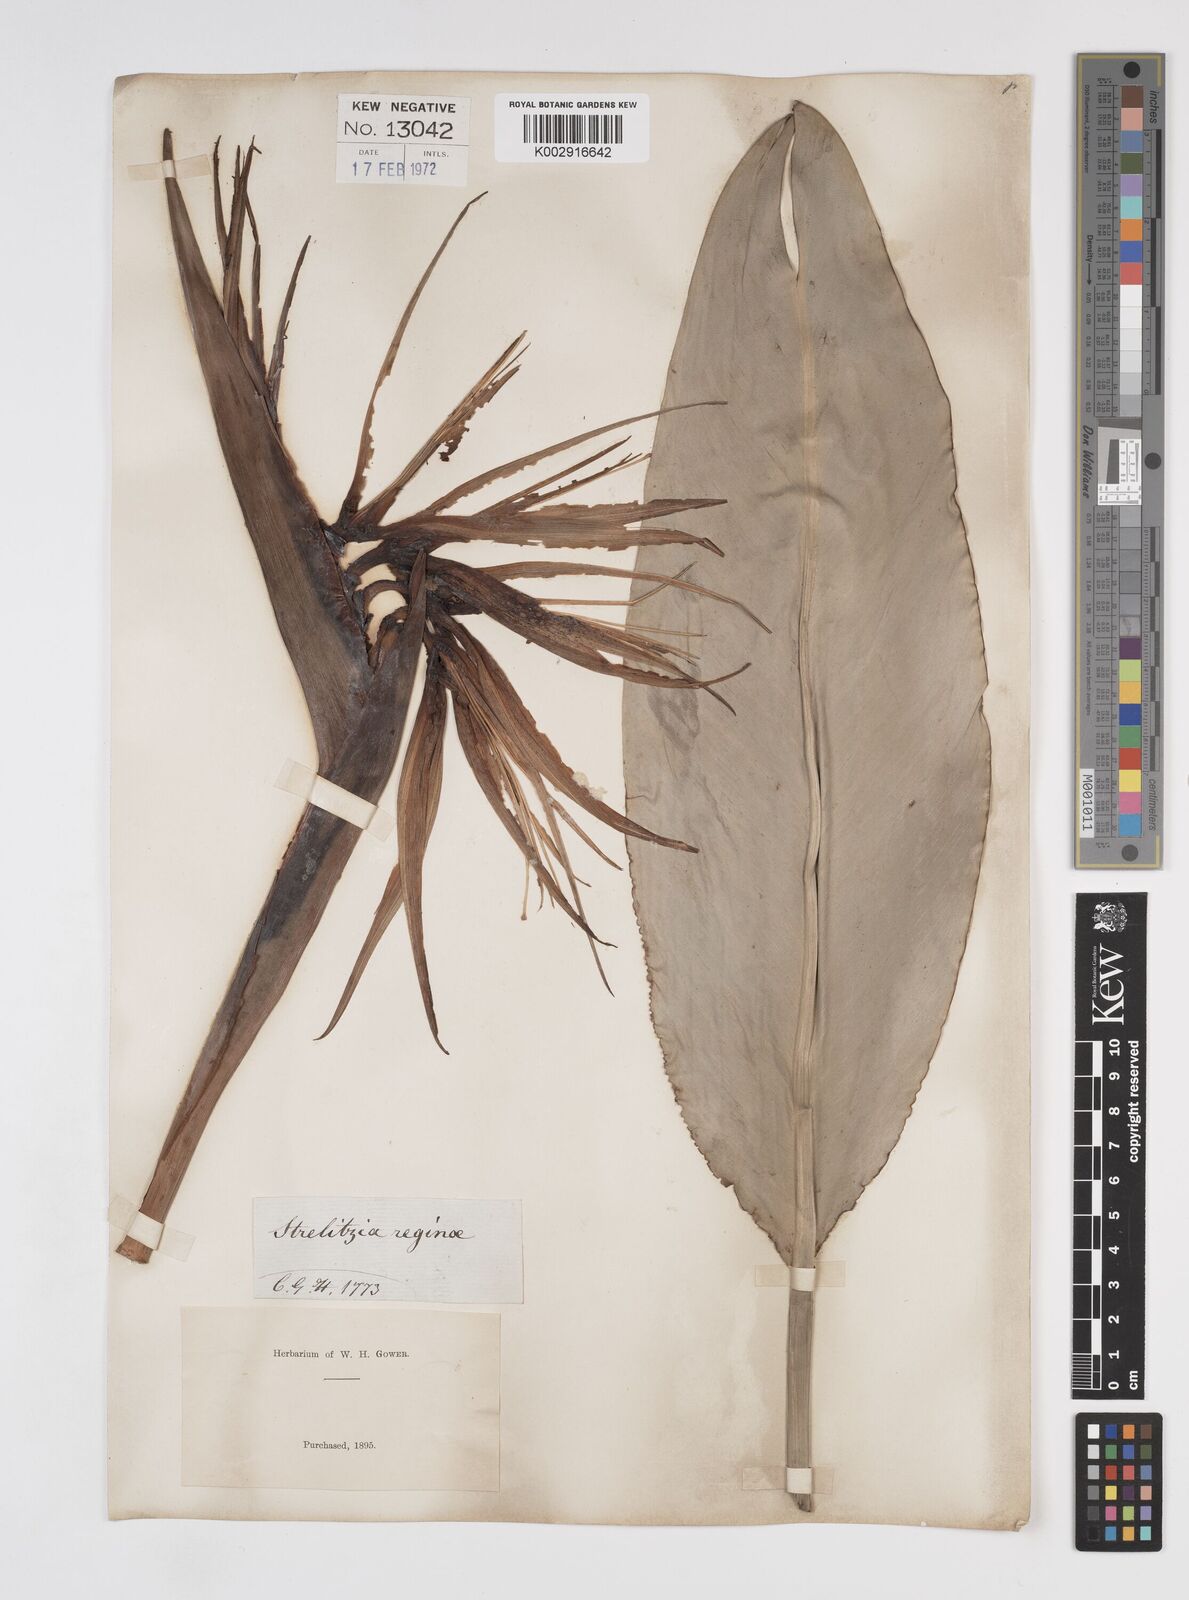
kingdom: Plantae
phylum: Tracheophyta
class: Liliopsida
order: Zingiberales
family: Strelitziaceae
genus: Strelitzia
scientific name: Strelitzia reginae
